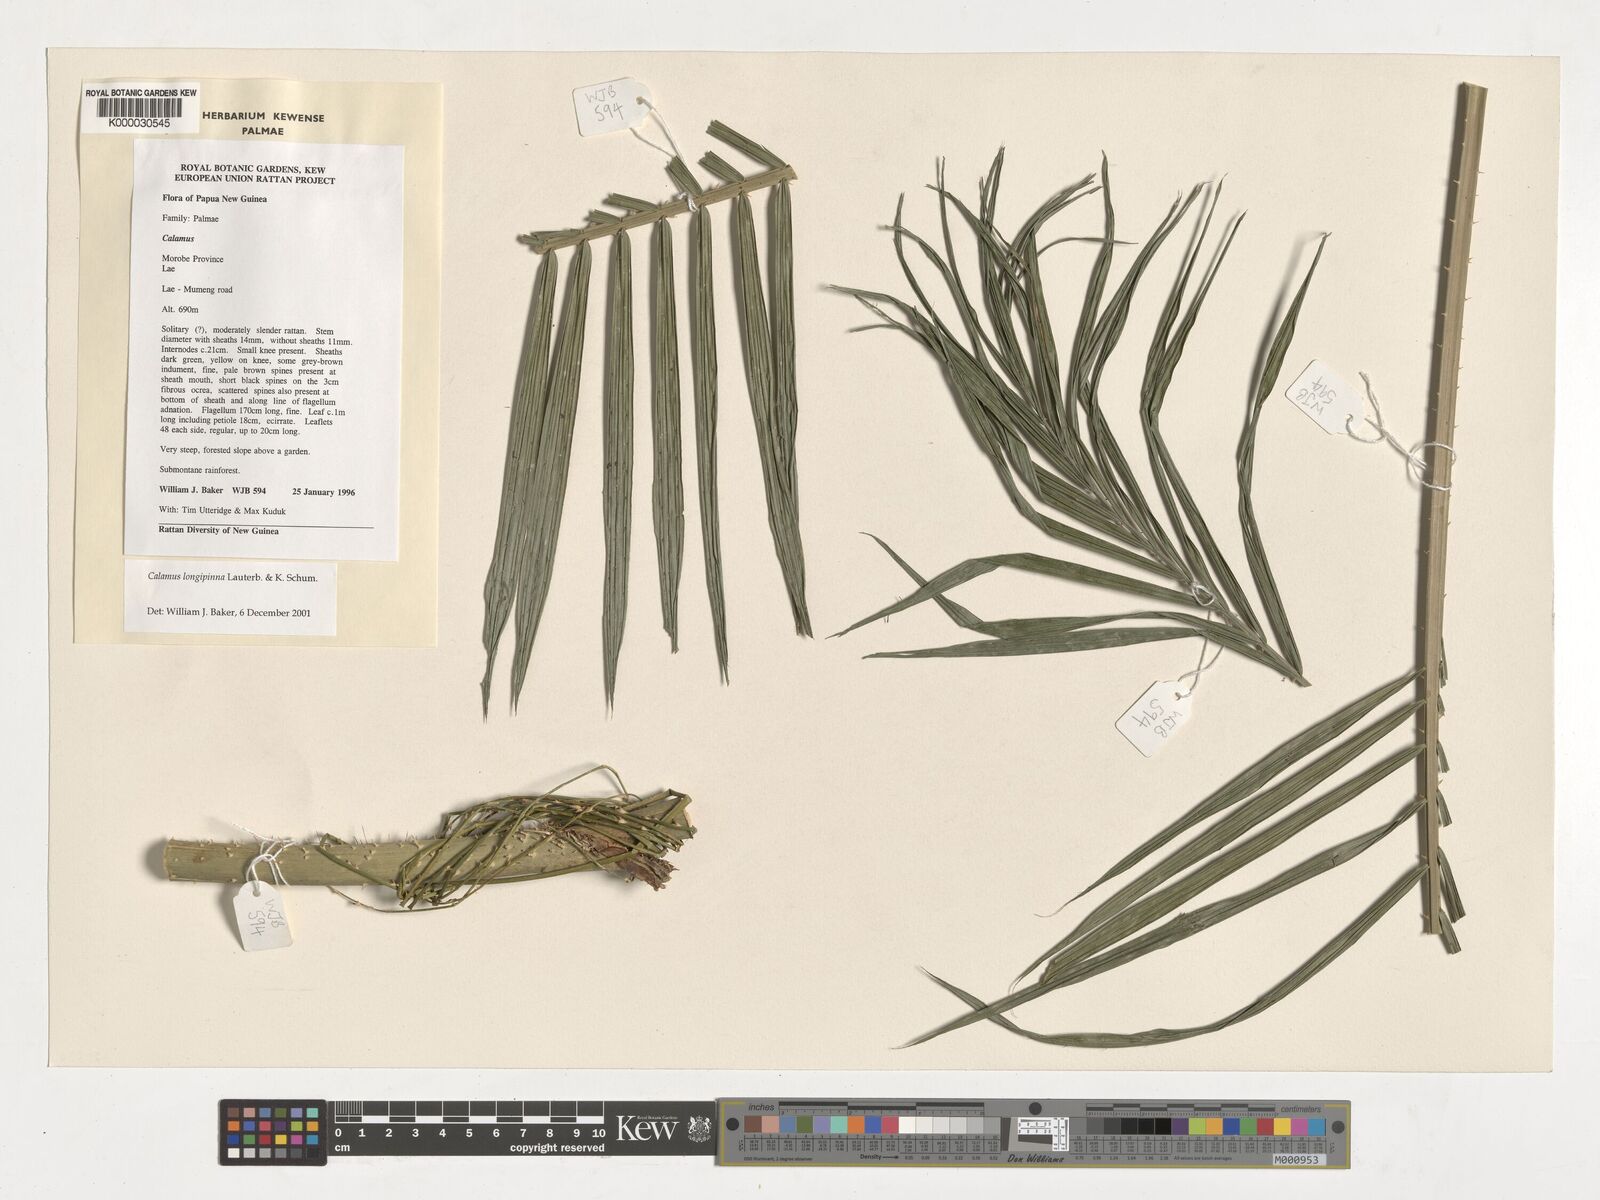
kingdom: Plantae
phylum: Tracheophyta
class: Liliopsida
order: Arecales
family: Arecaceae
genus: Calamus
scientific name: Calamus longipinna
